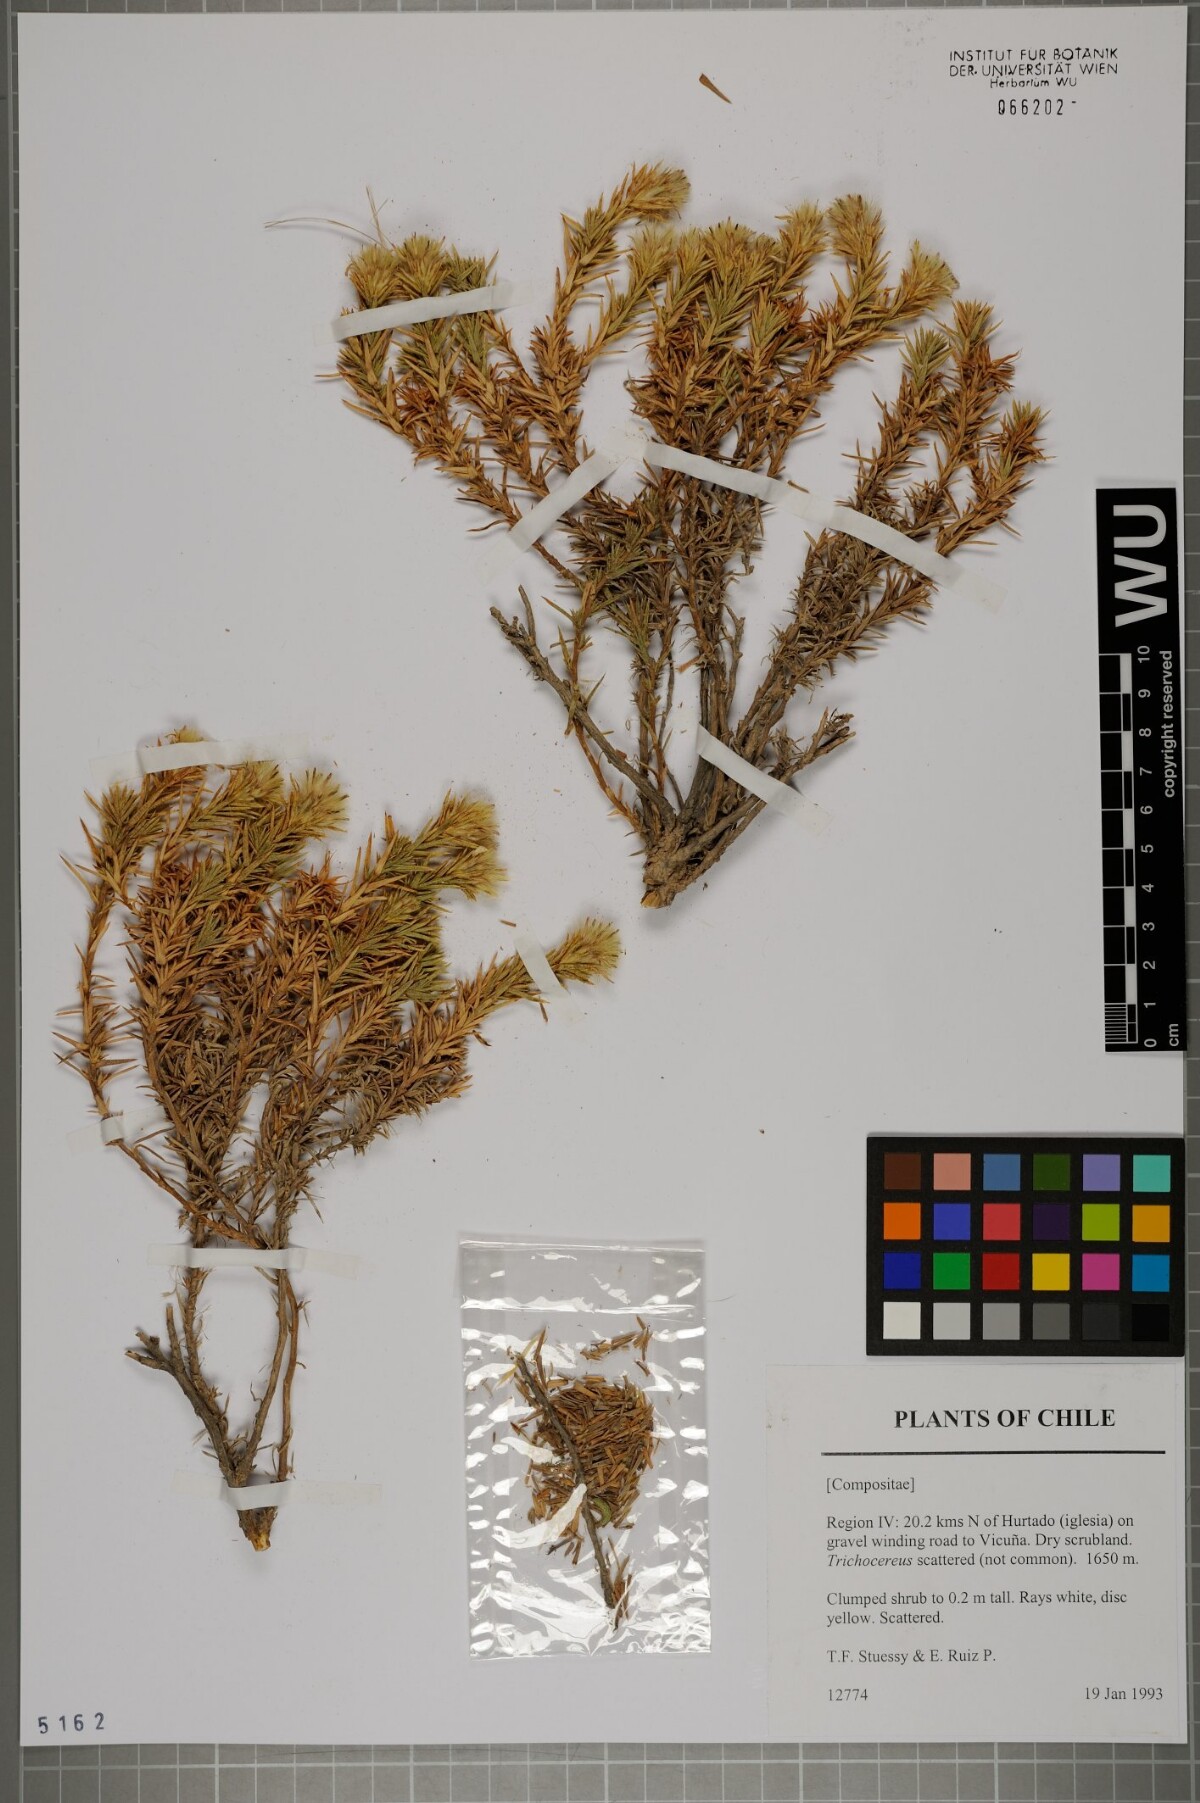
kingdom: Plantae
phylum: Tracheophyta
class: Magnoliopsida
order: Asterales
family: Asteraceae
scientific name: Asteraceae
